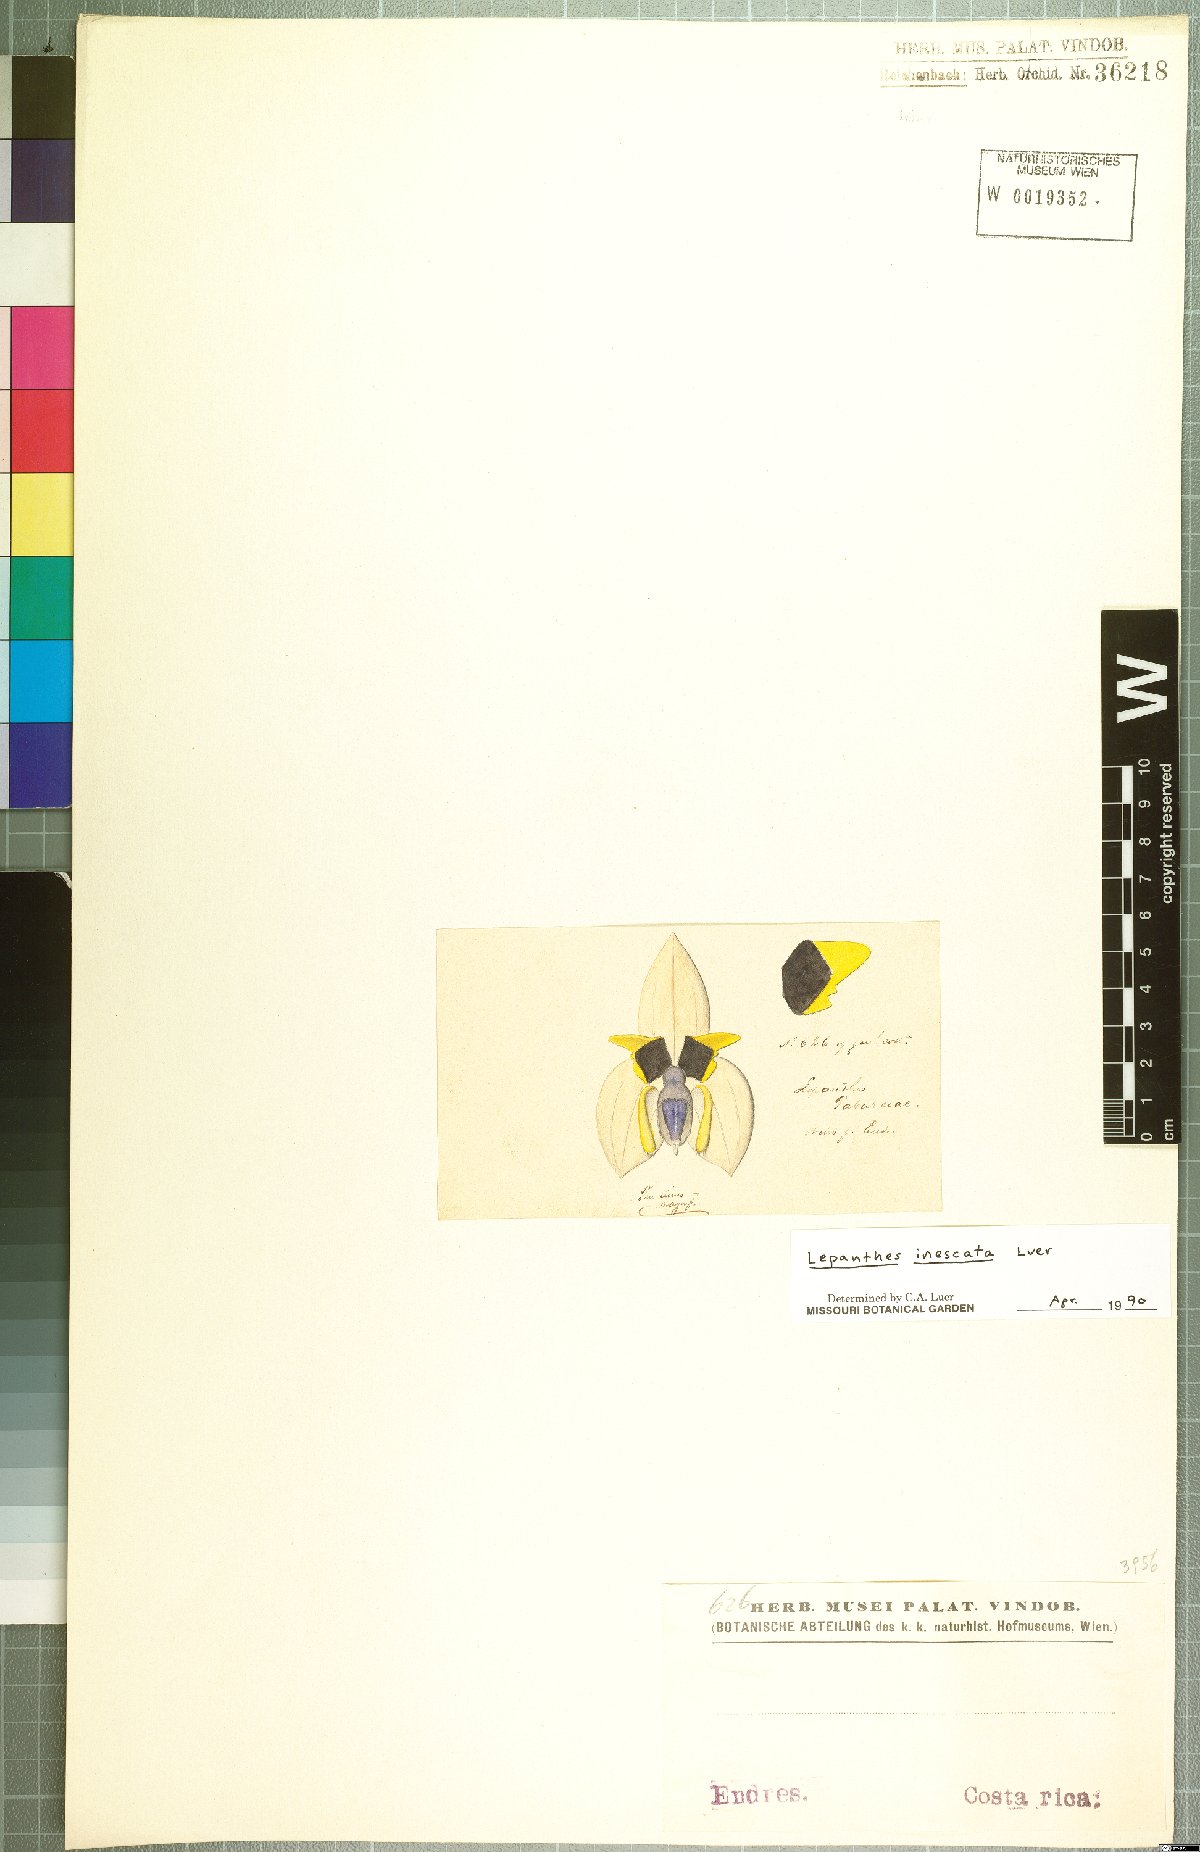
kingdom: Plantae
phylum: Tracheophyta
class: Liliopsida
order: Asparagales
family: Orchidaceae
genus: Lepanthes
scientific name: Lepanthes inescata
